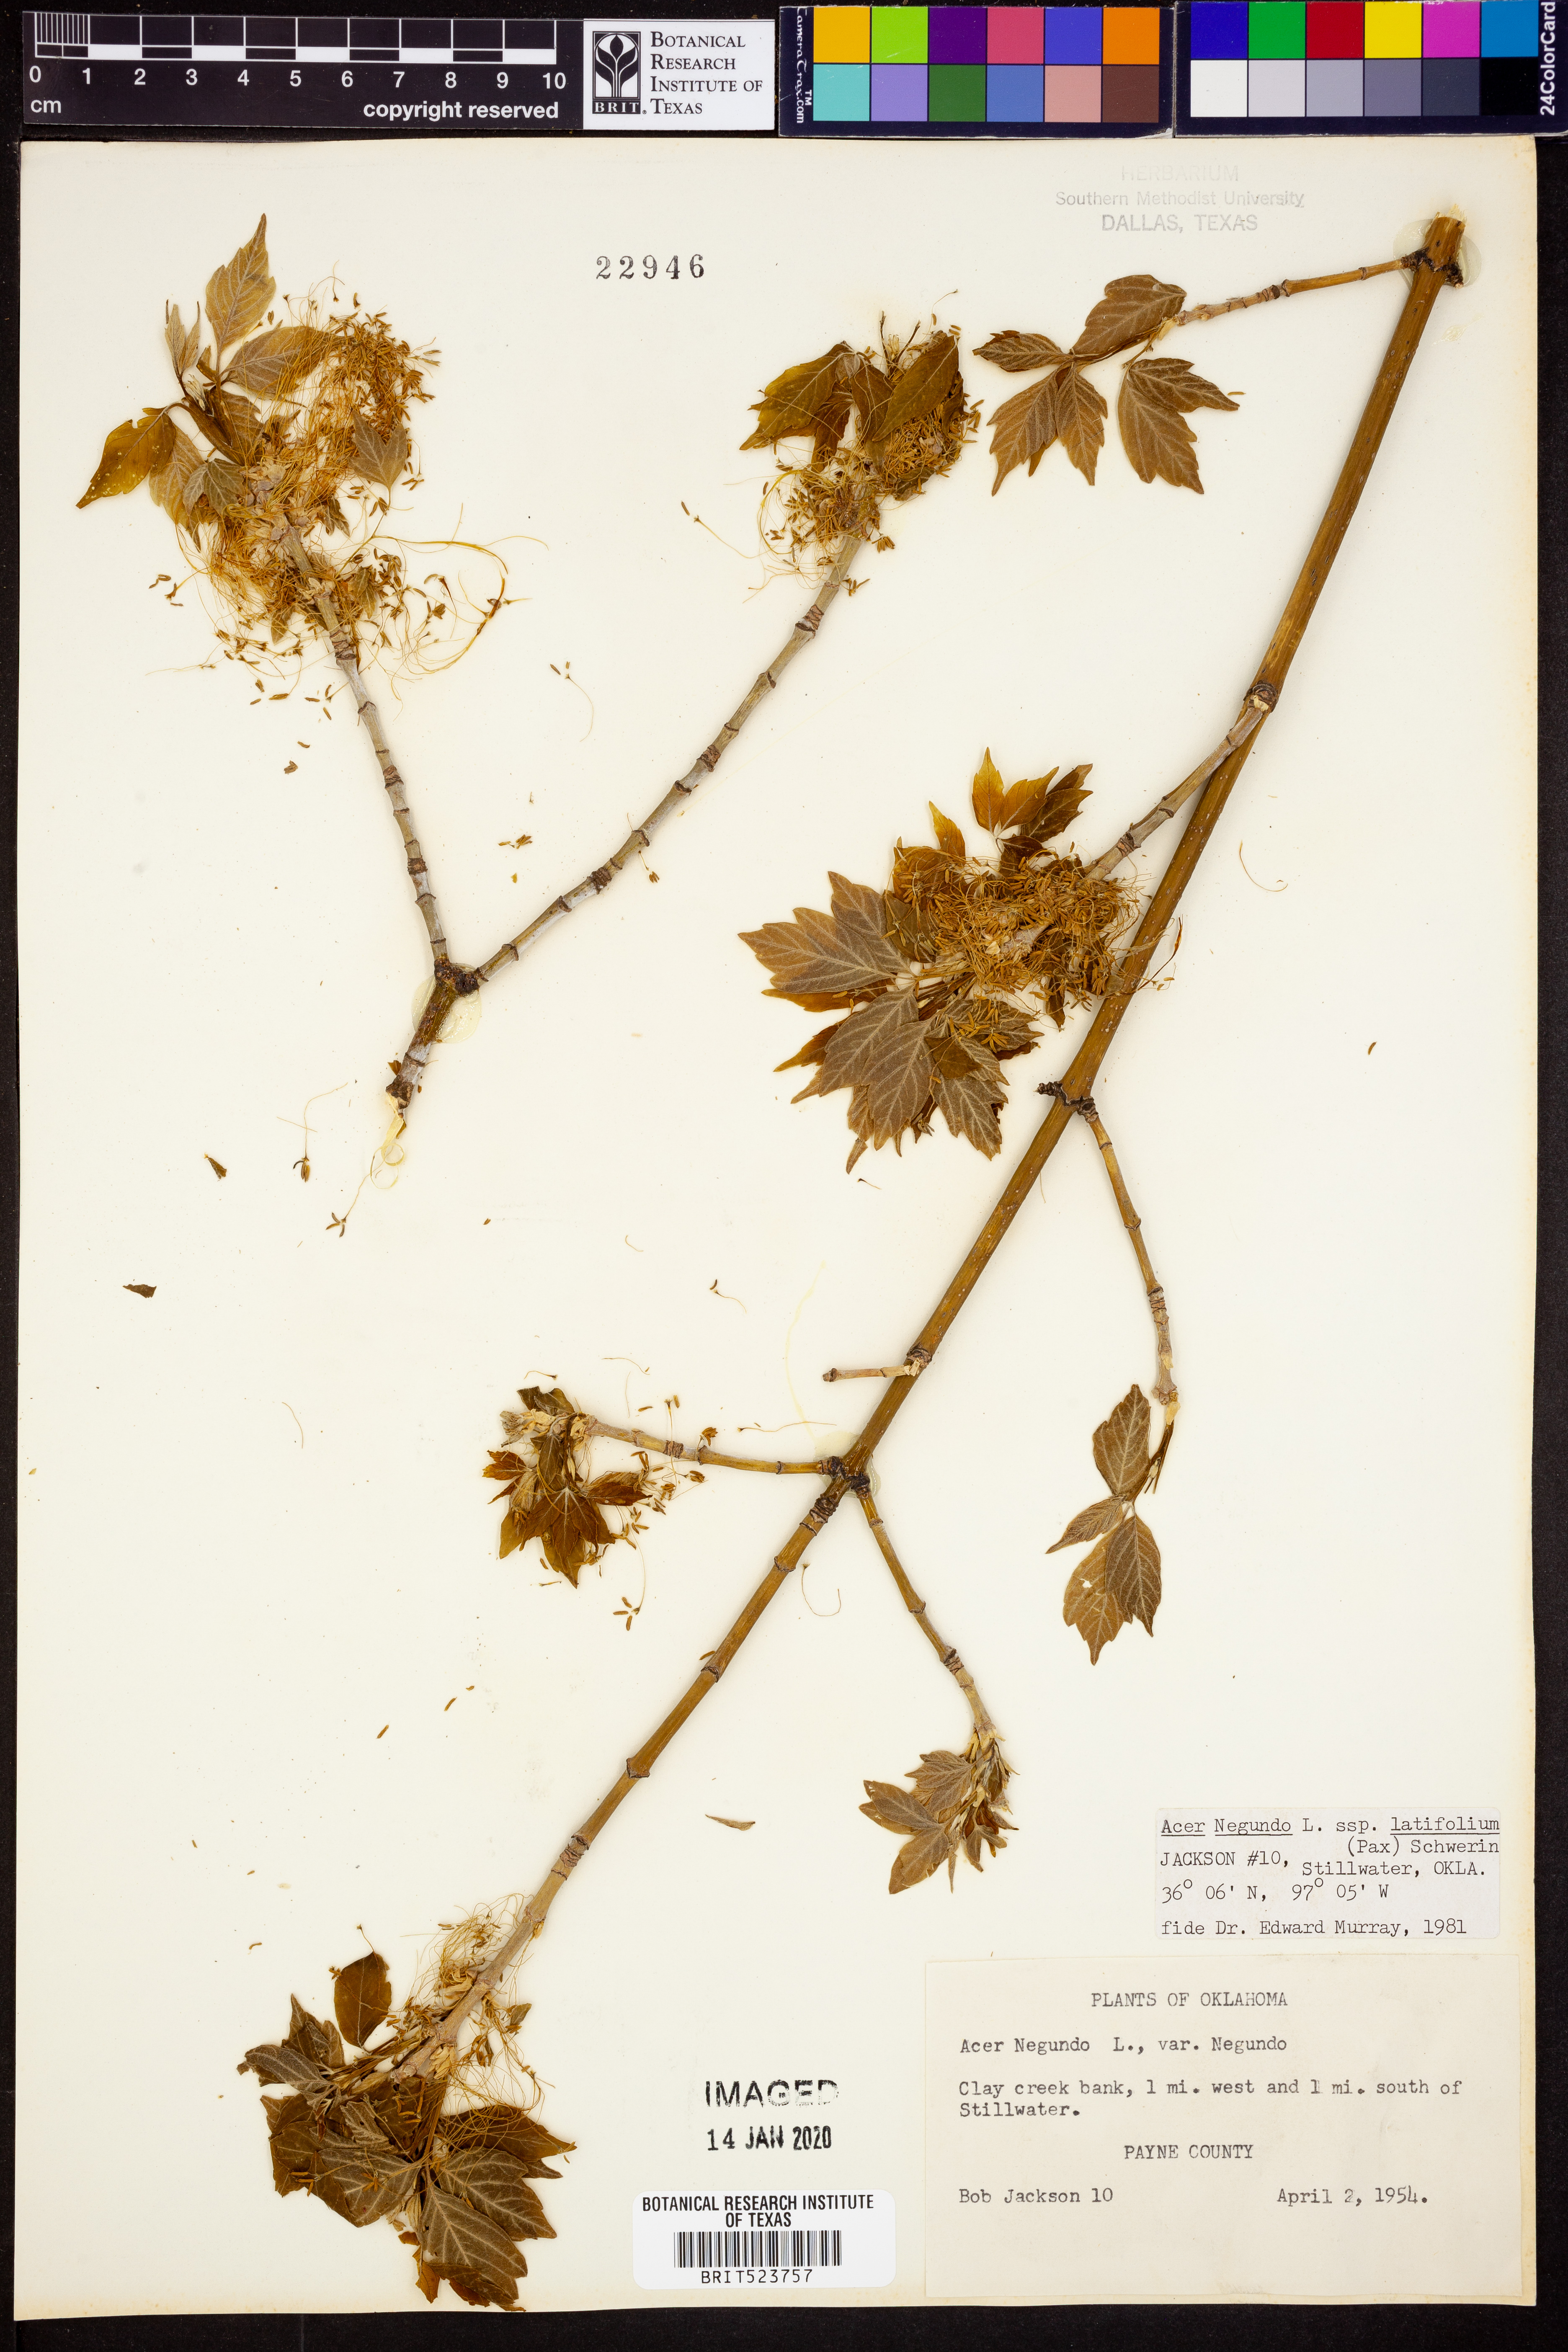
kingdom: Plantae
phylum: Tracheophyta
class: Magnoliopsida
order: Sapindales
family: Sapindaceae
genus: Acer
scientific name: Acer negundo
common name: Ashleaf maple
